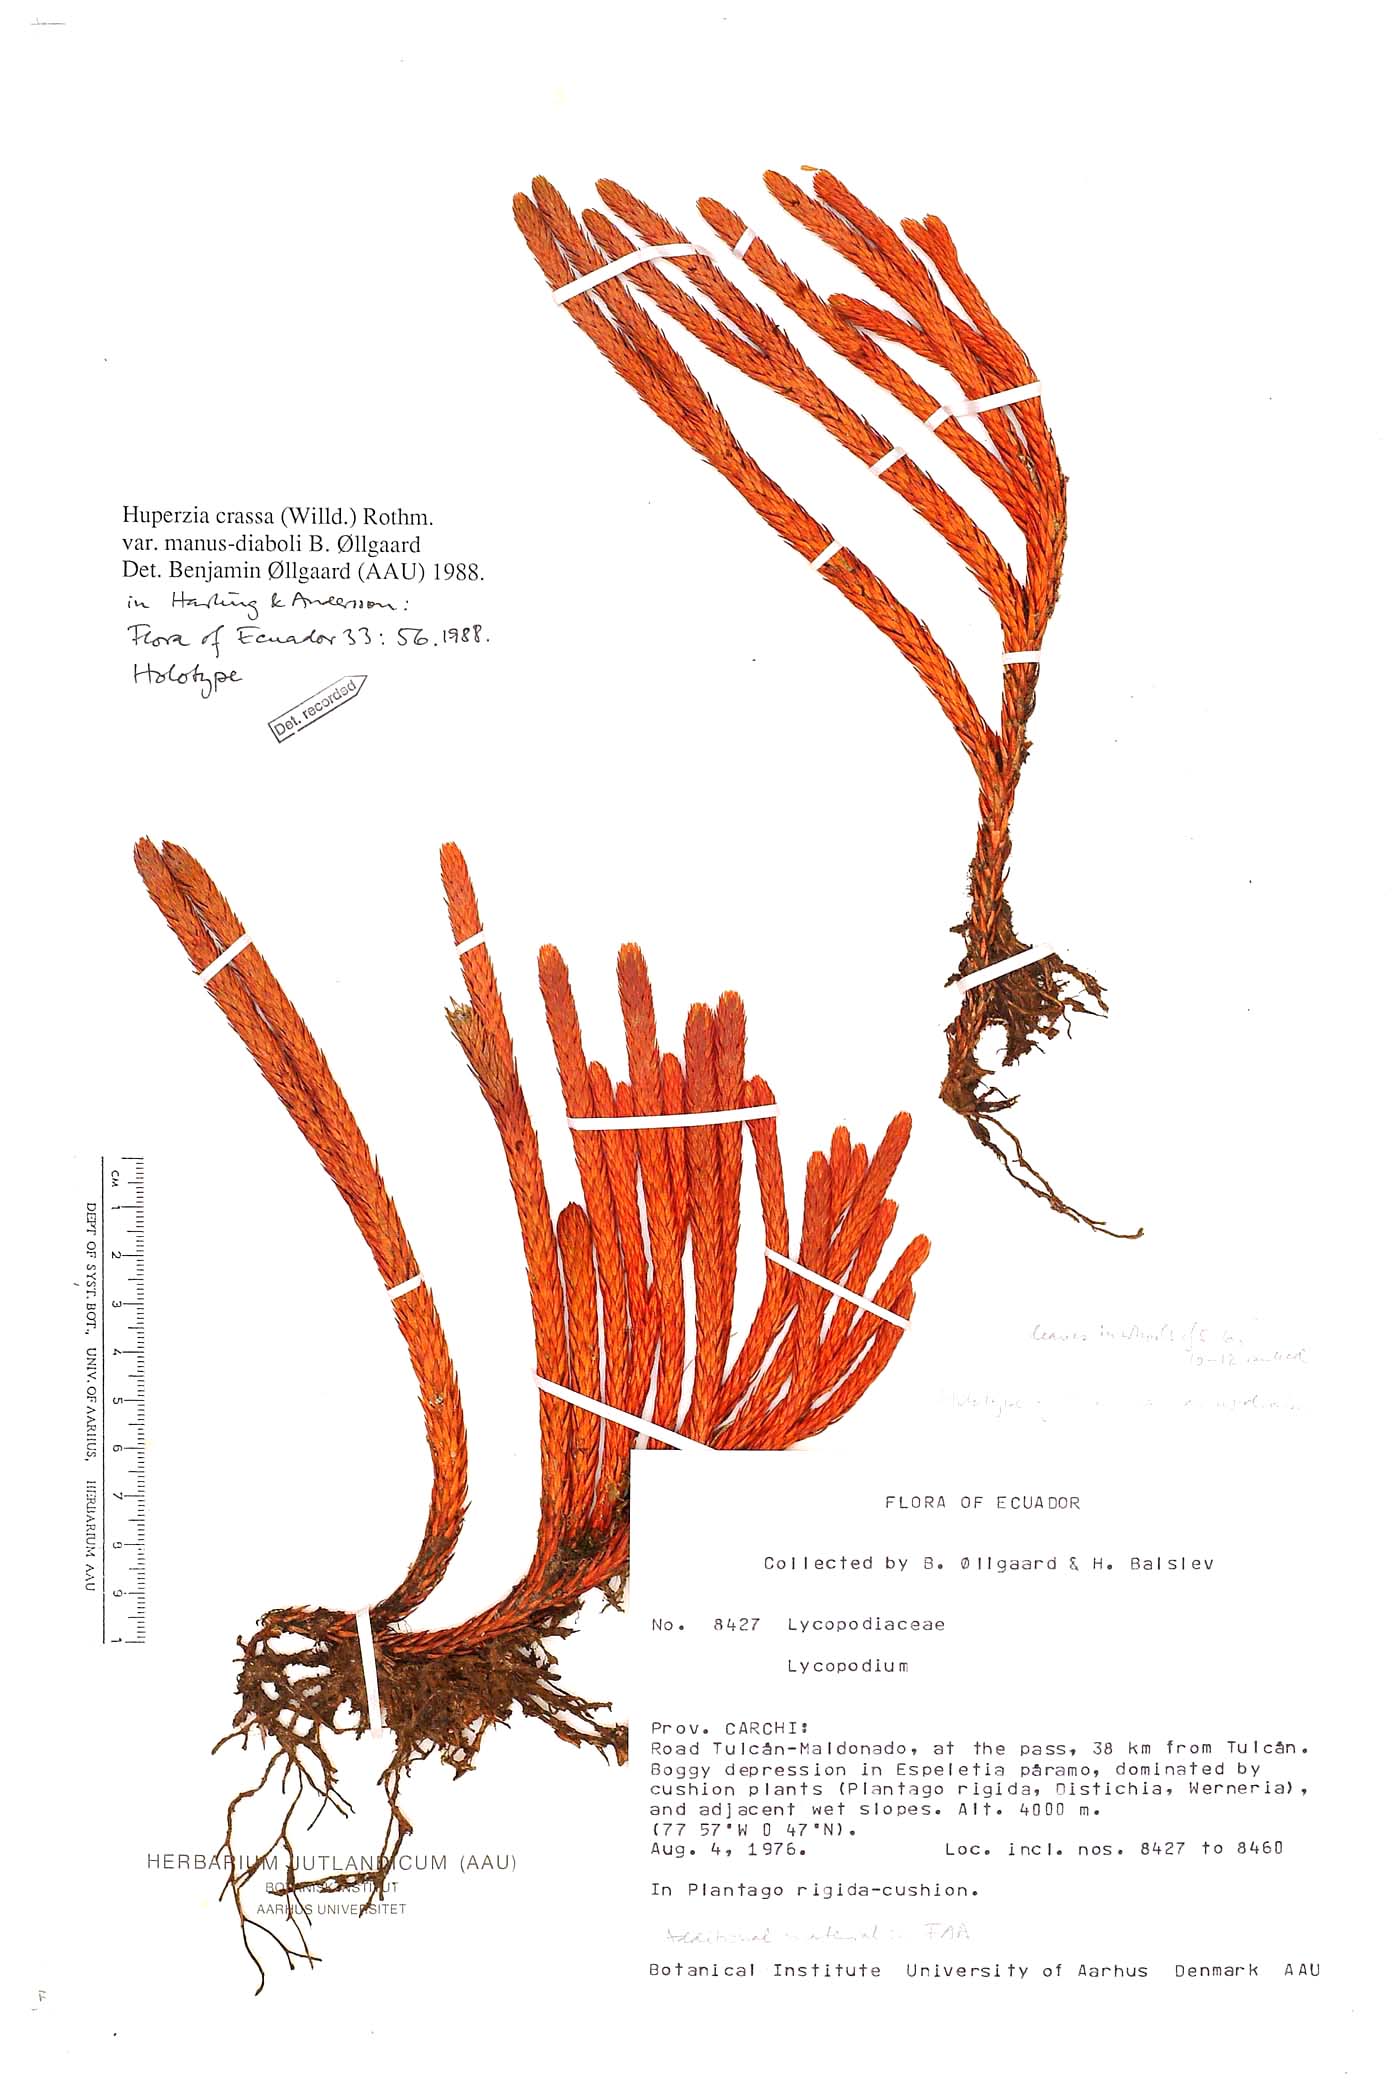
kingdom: Plantae
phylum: Tracheophyta
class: Lycopodiopsida
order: Lycopodiales
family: Lycopodiaceae
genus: Phlegmariurus
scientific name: Phlegmariurus crassus
